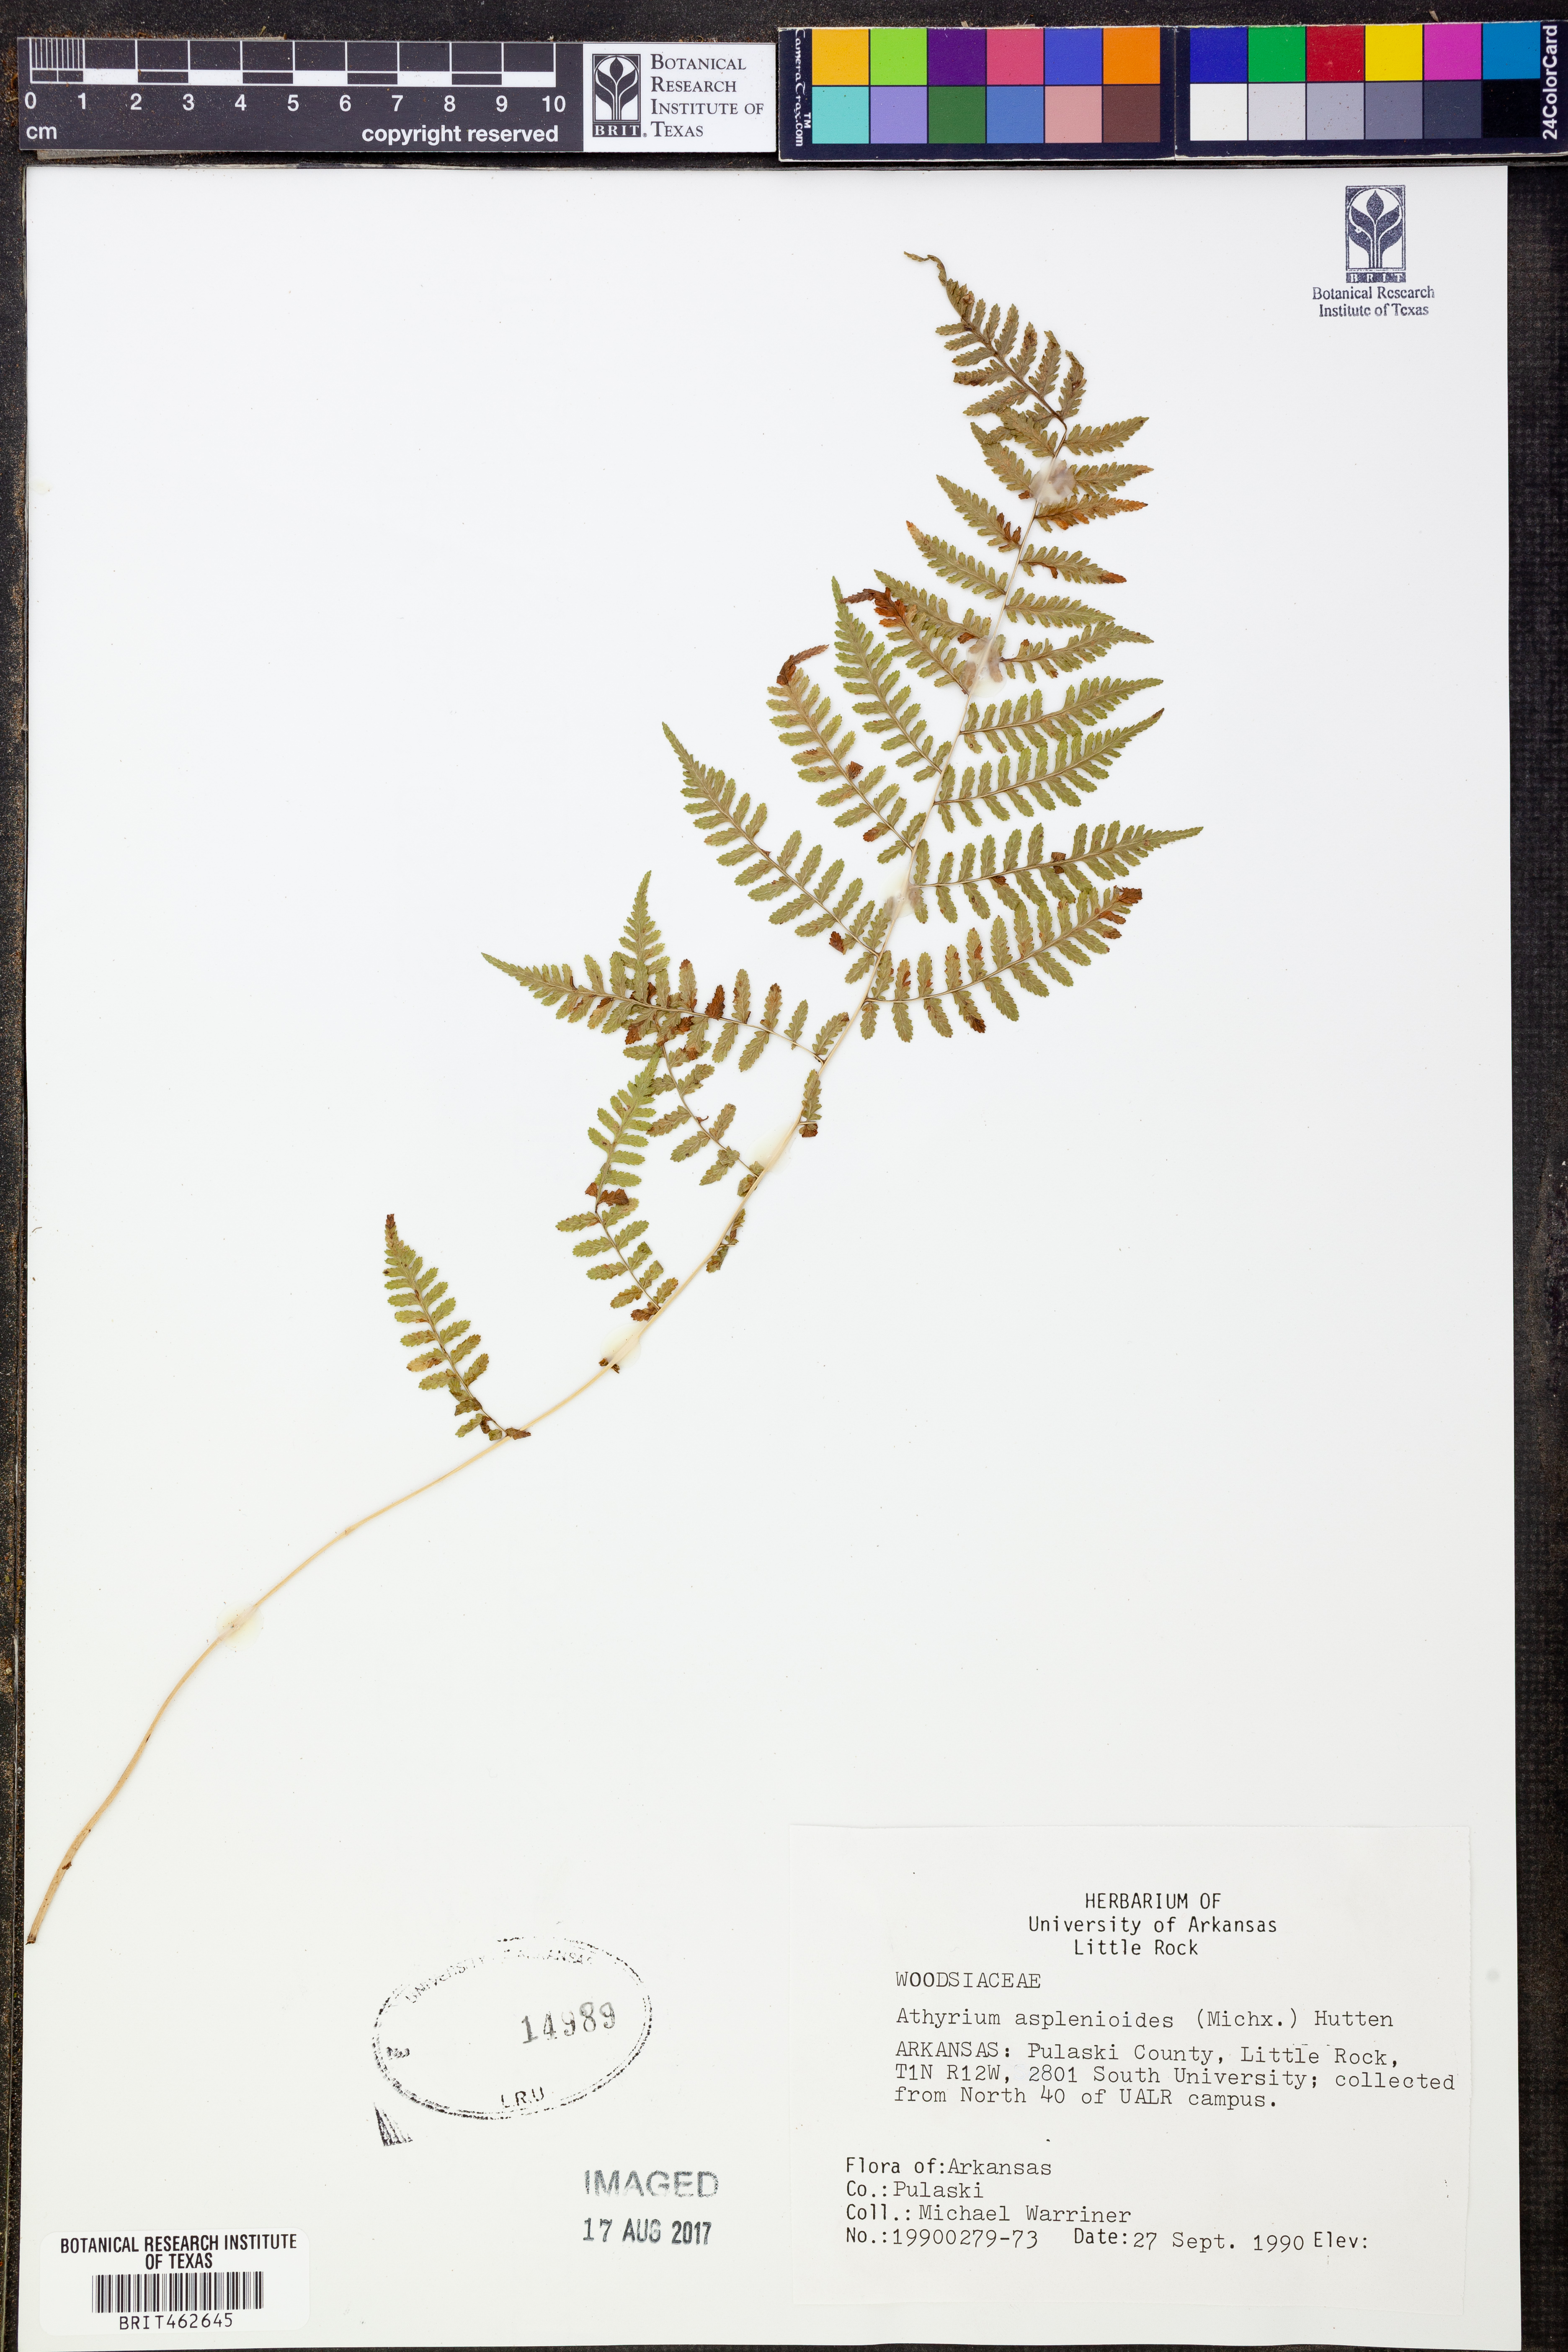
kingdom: Plantae
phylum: Tracheophyta
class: Polypodiopsida
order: Polypodiales
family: Athyriaceae
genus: Athyrium
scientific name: Athyrium asplenioides
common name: Southern lady fern
